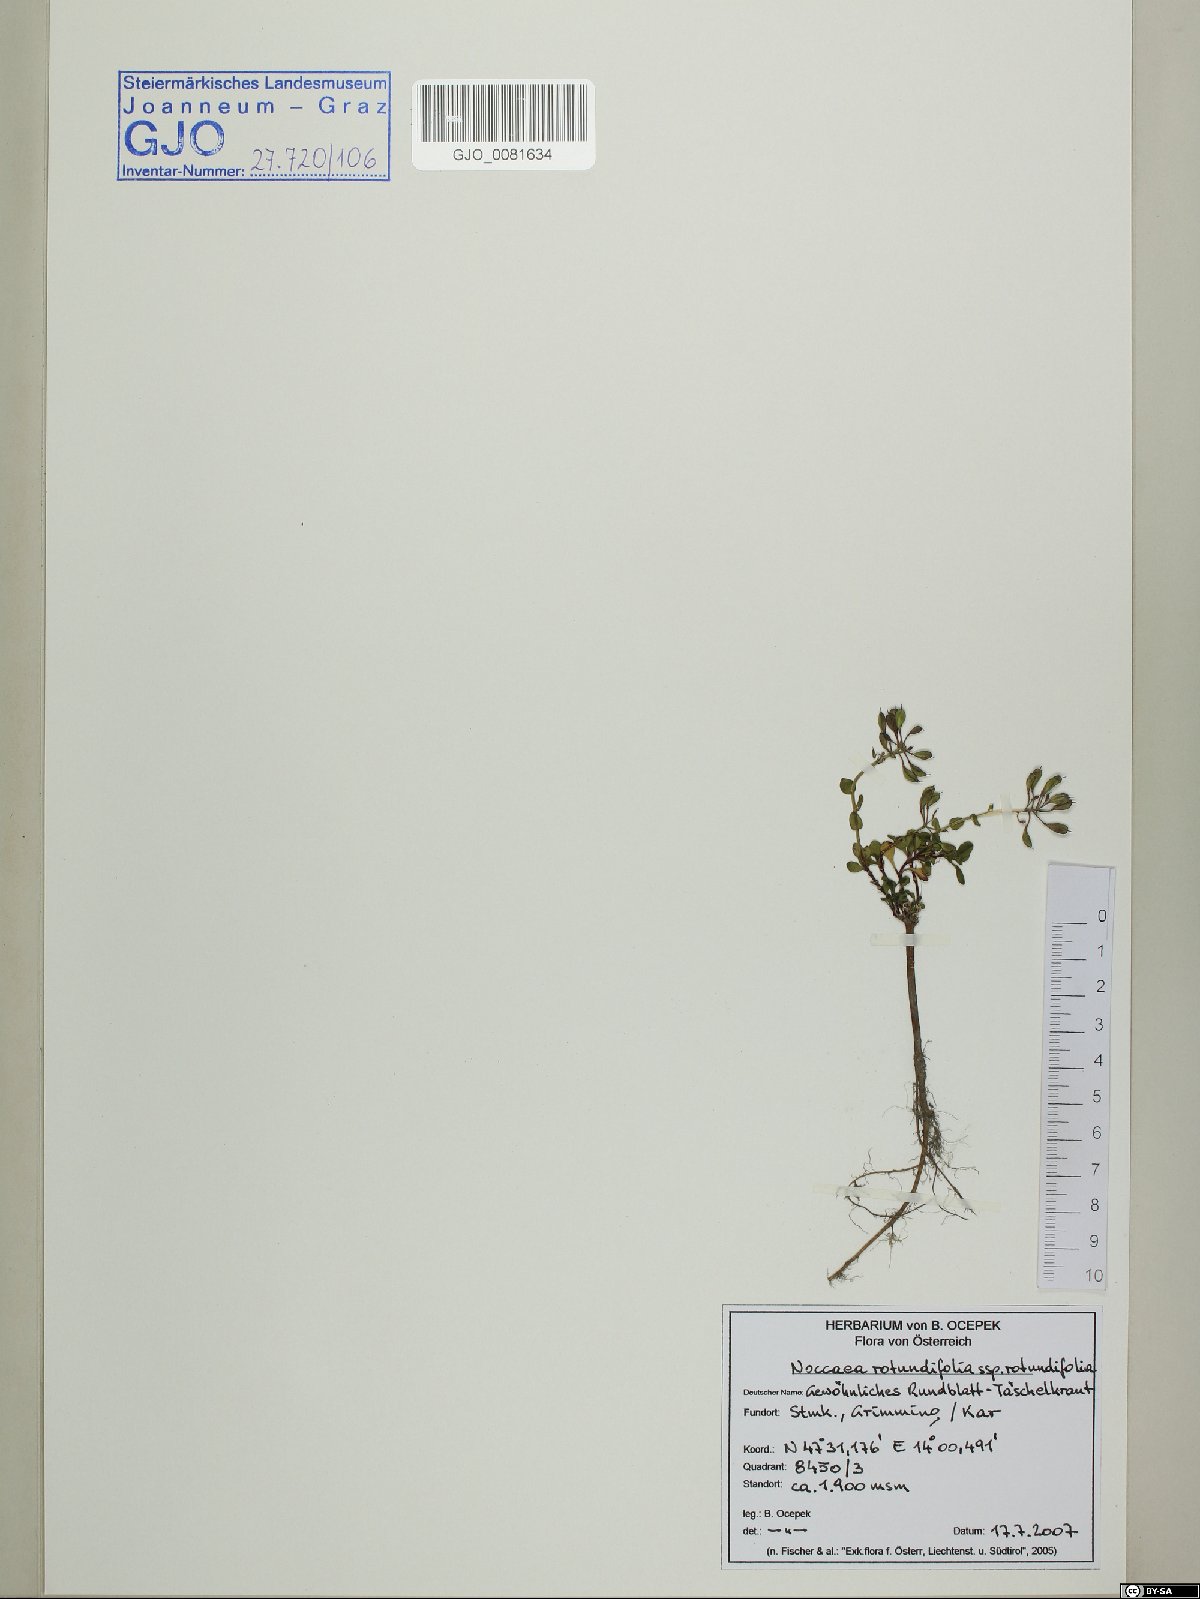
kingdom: Plantae
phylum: Tracheophyta
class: Magnoliopsida
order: Brassicales
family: Brassicaceae
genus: Noccaea
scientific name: Noccaea rotundifolia
